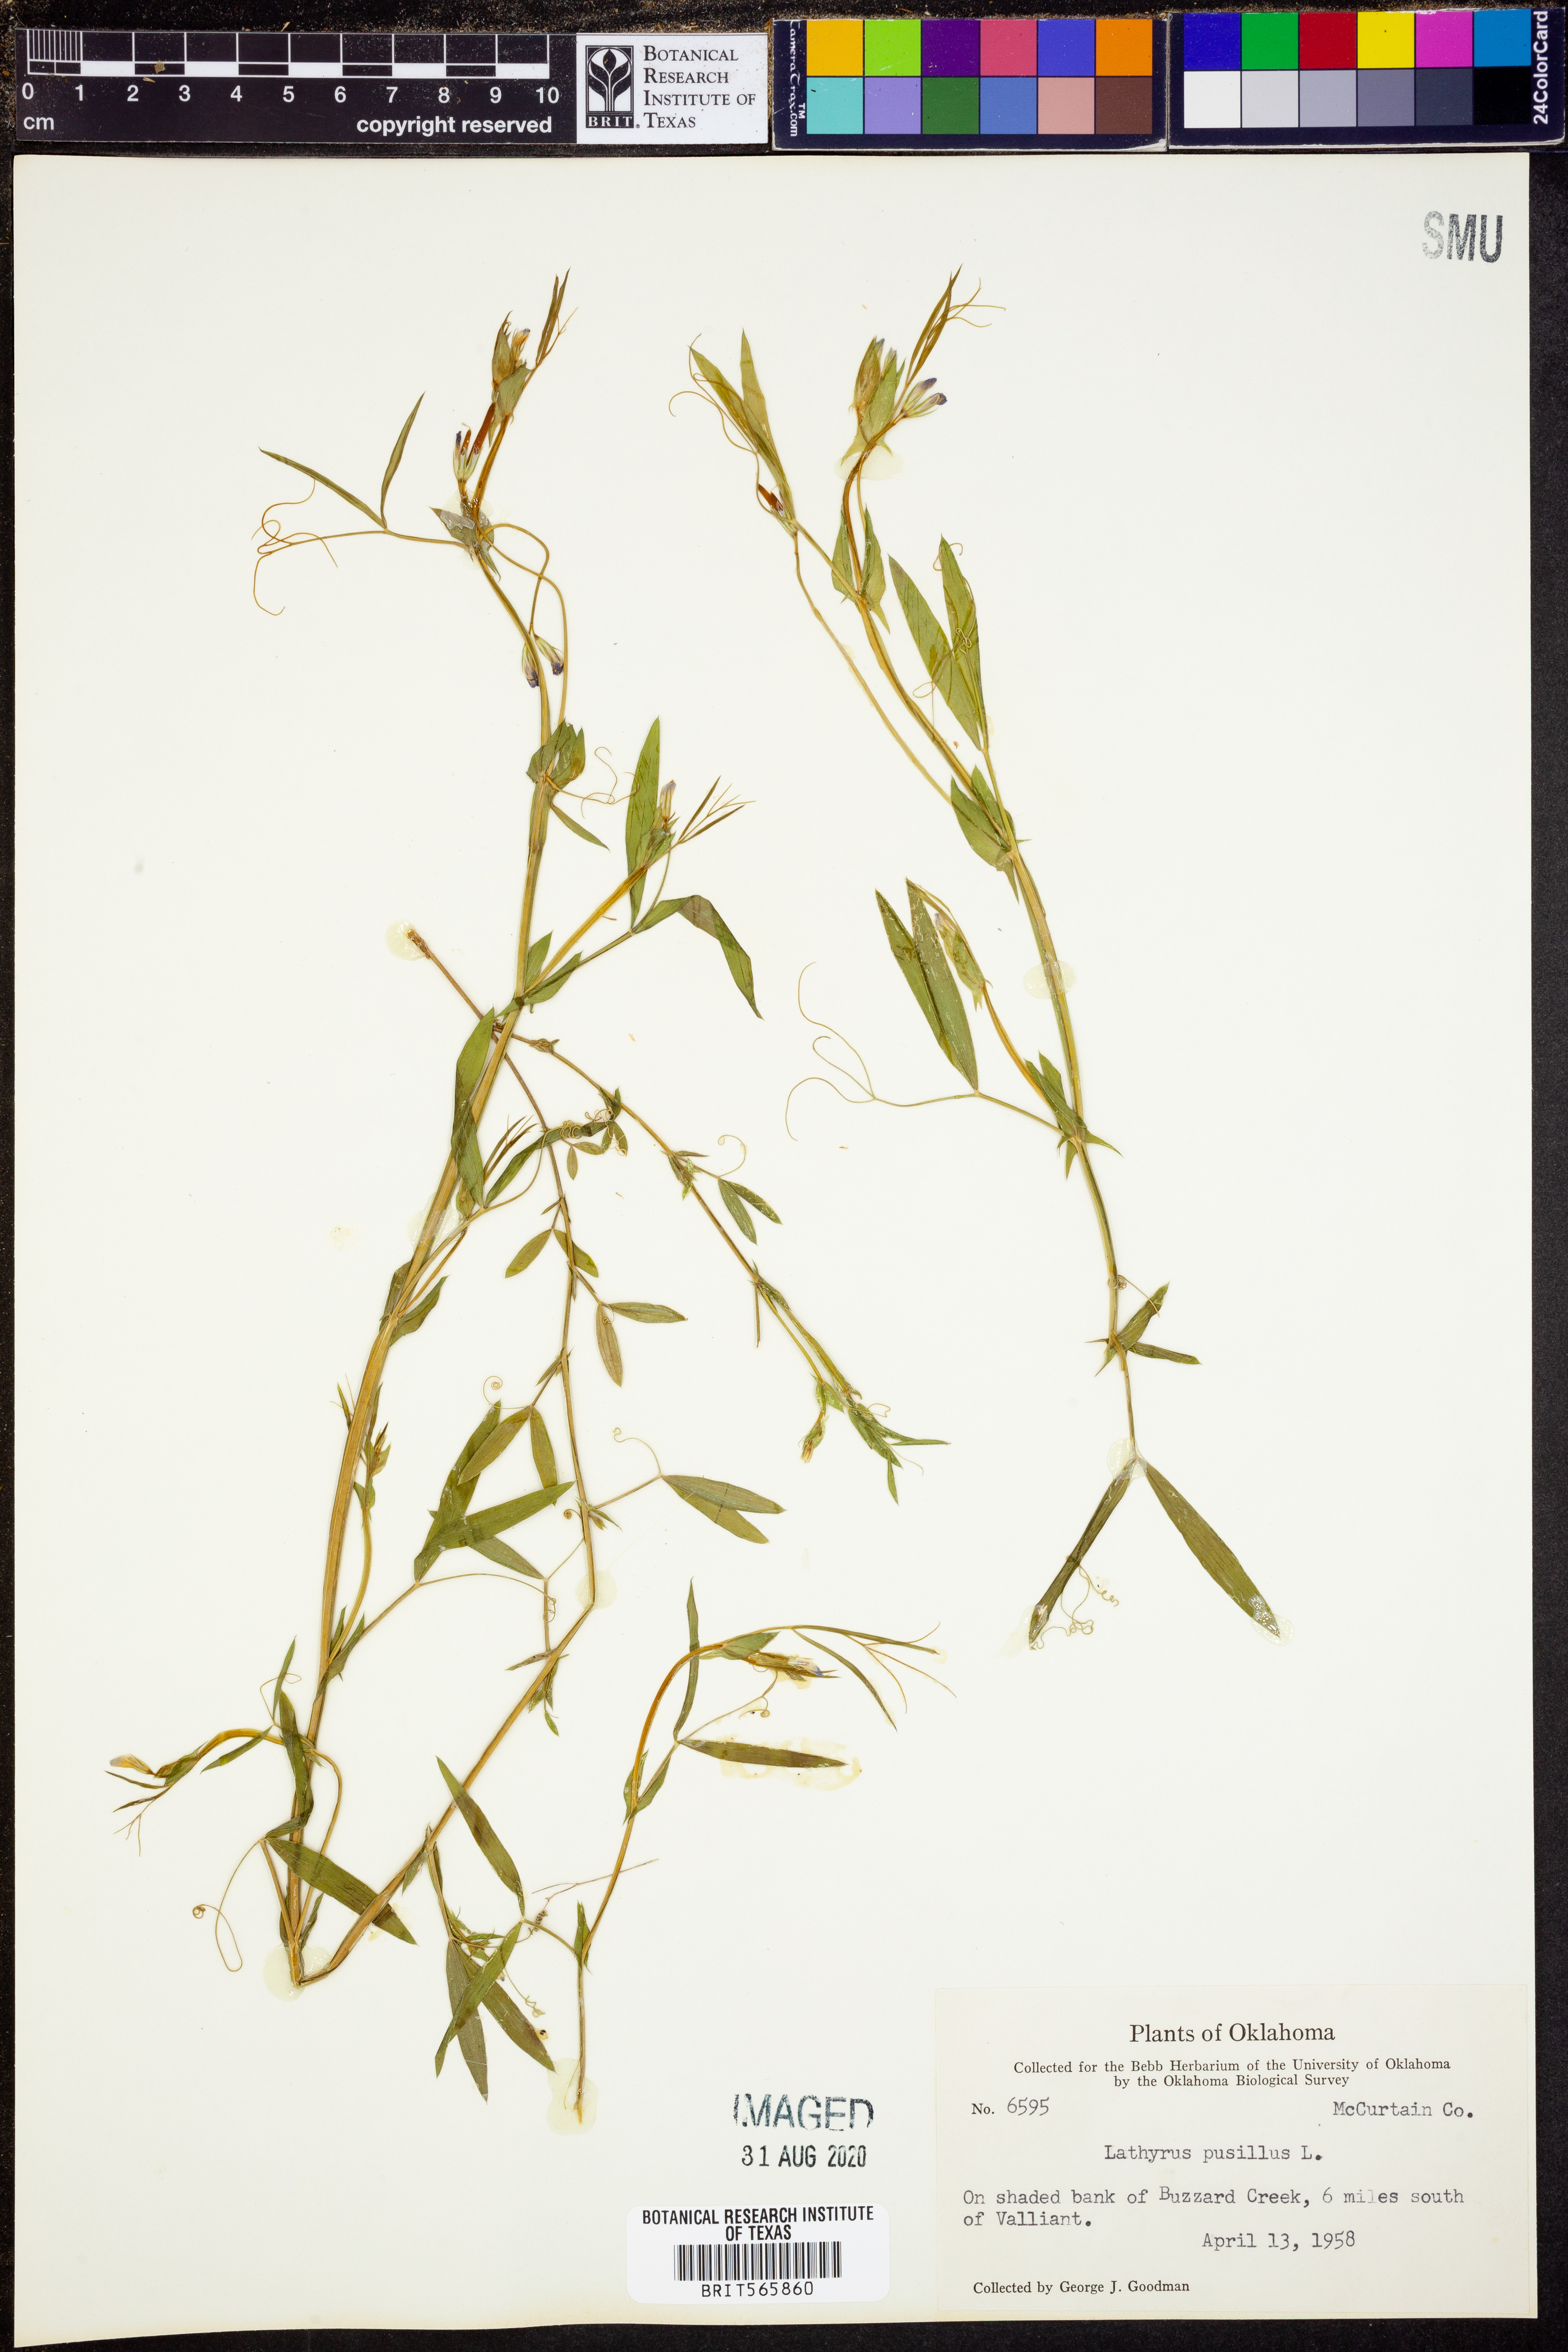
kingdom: Plantae
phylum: Tracheophyta
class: Magnoliopsida
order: Fabales
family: Fabaceae
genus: Lathyrus
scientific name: Lathyrus pusillus
